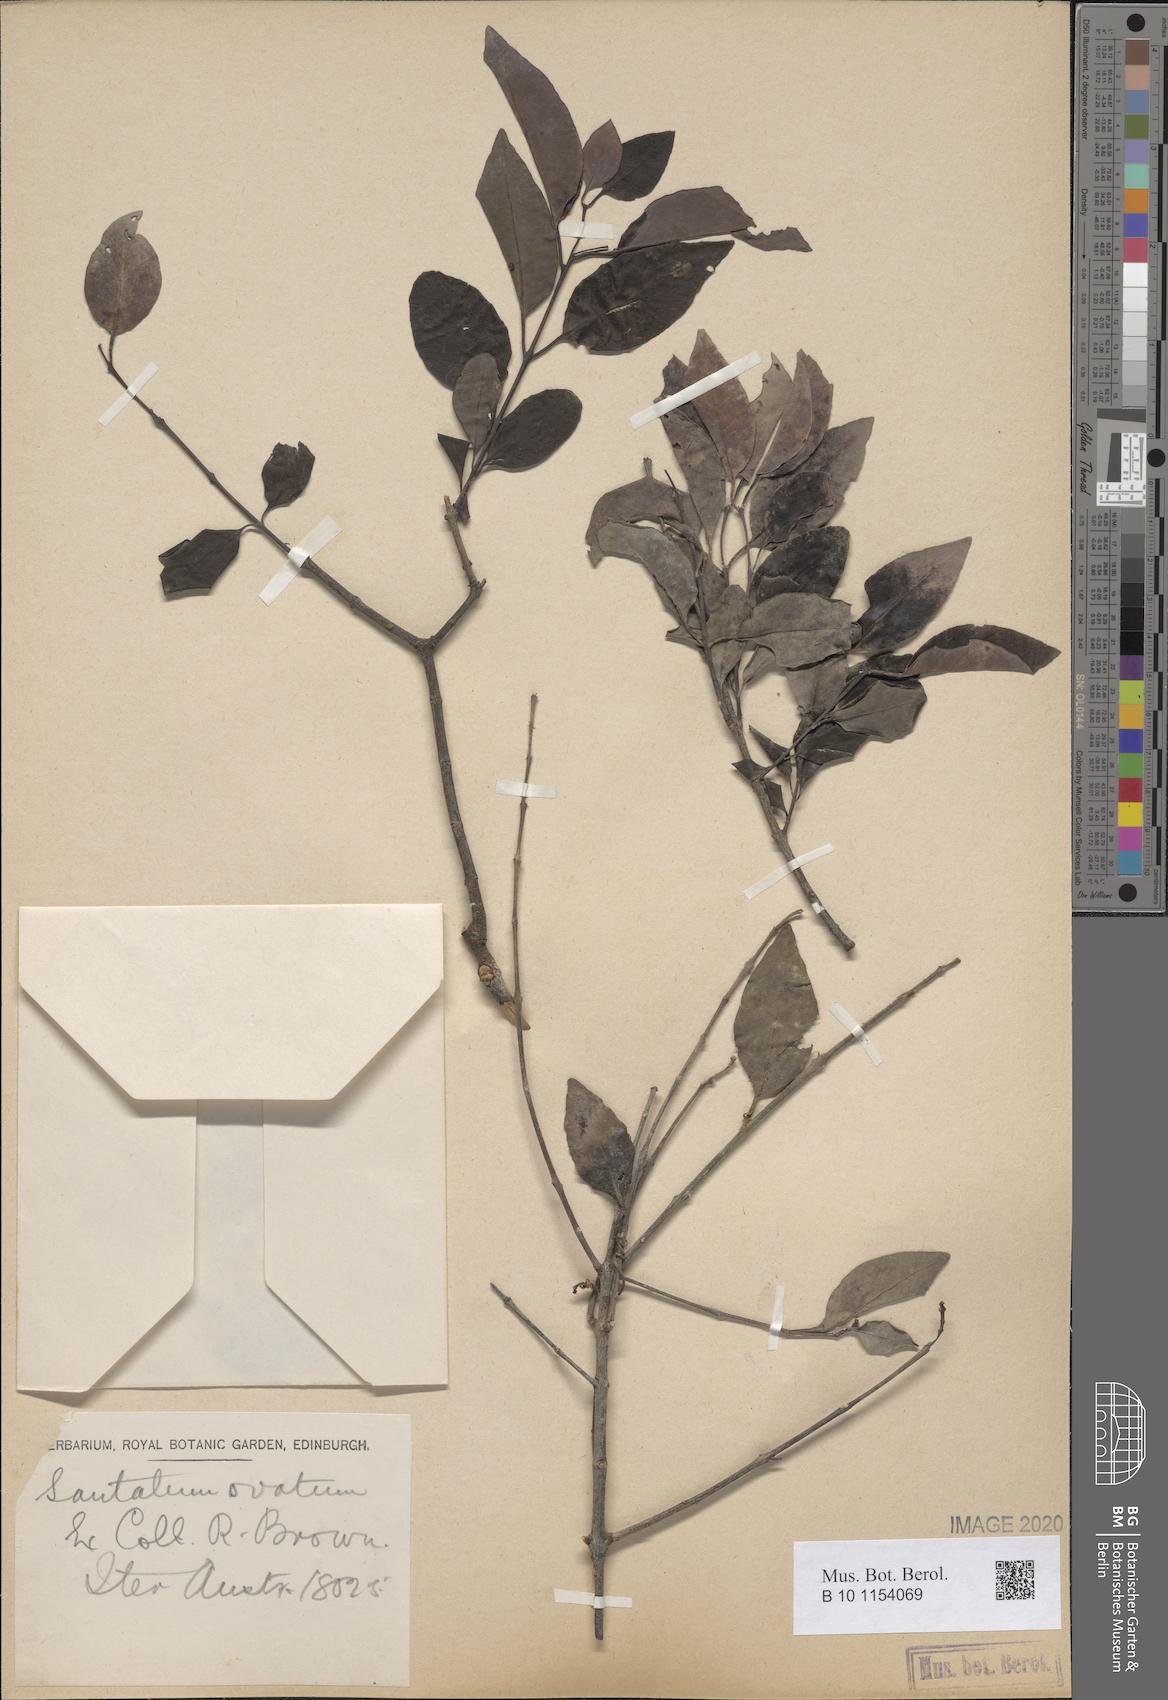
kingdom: Plantae
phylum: Tracheophyta
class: Magnoliopsida
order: Santalales
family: Santalaceae
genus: Santalum
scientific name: Santalum album
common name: Indian sandalwood
